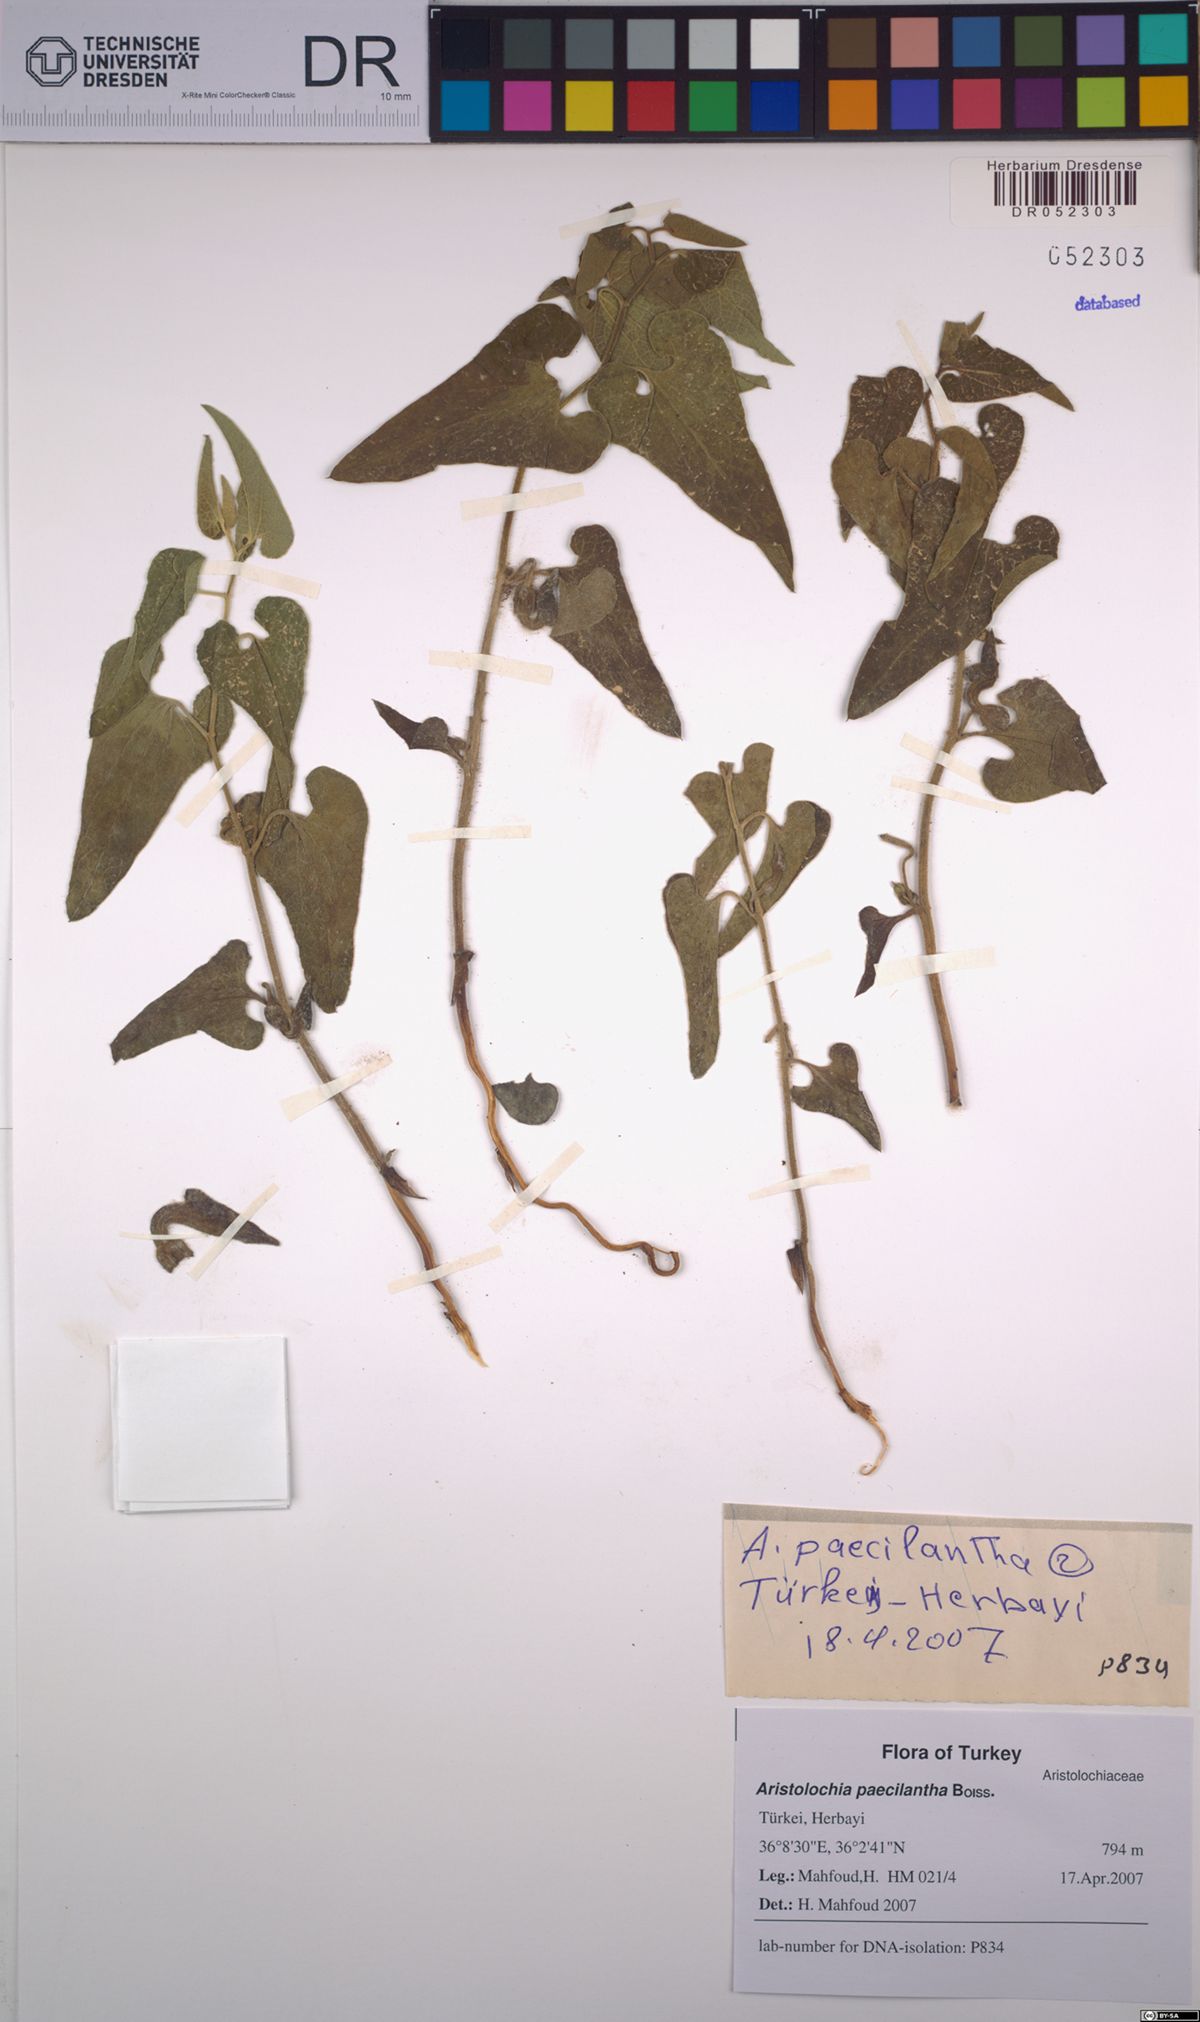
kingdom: Plantae
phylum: Tracheophyta
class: Magnoliopsida
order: Piperales
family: Aristolochiaceae
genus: Aristolochia
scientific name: Aristolochia paecilantha
